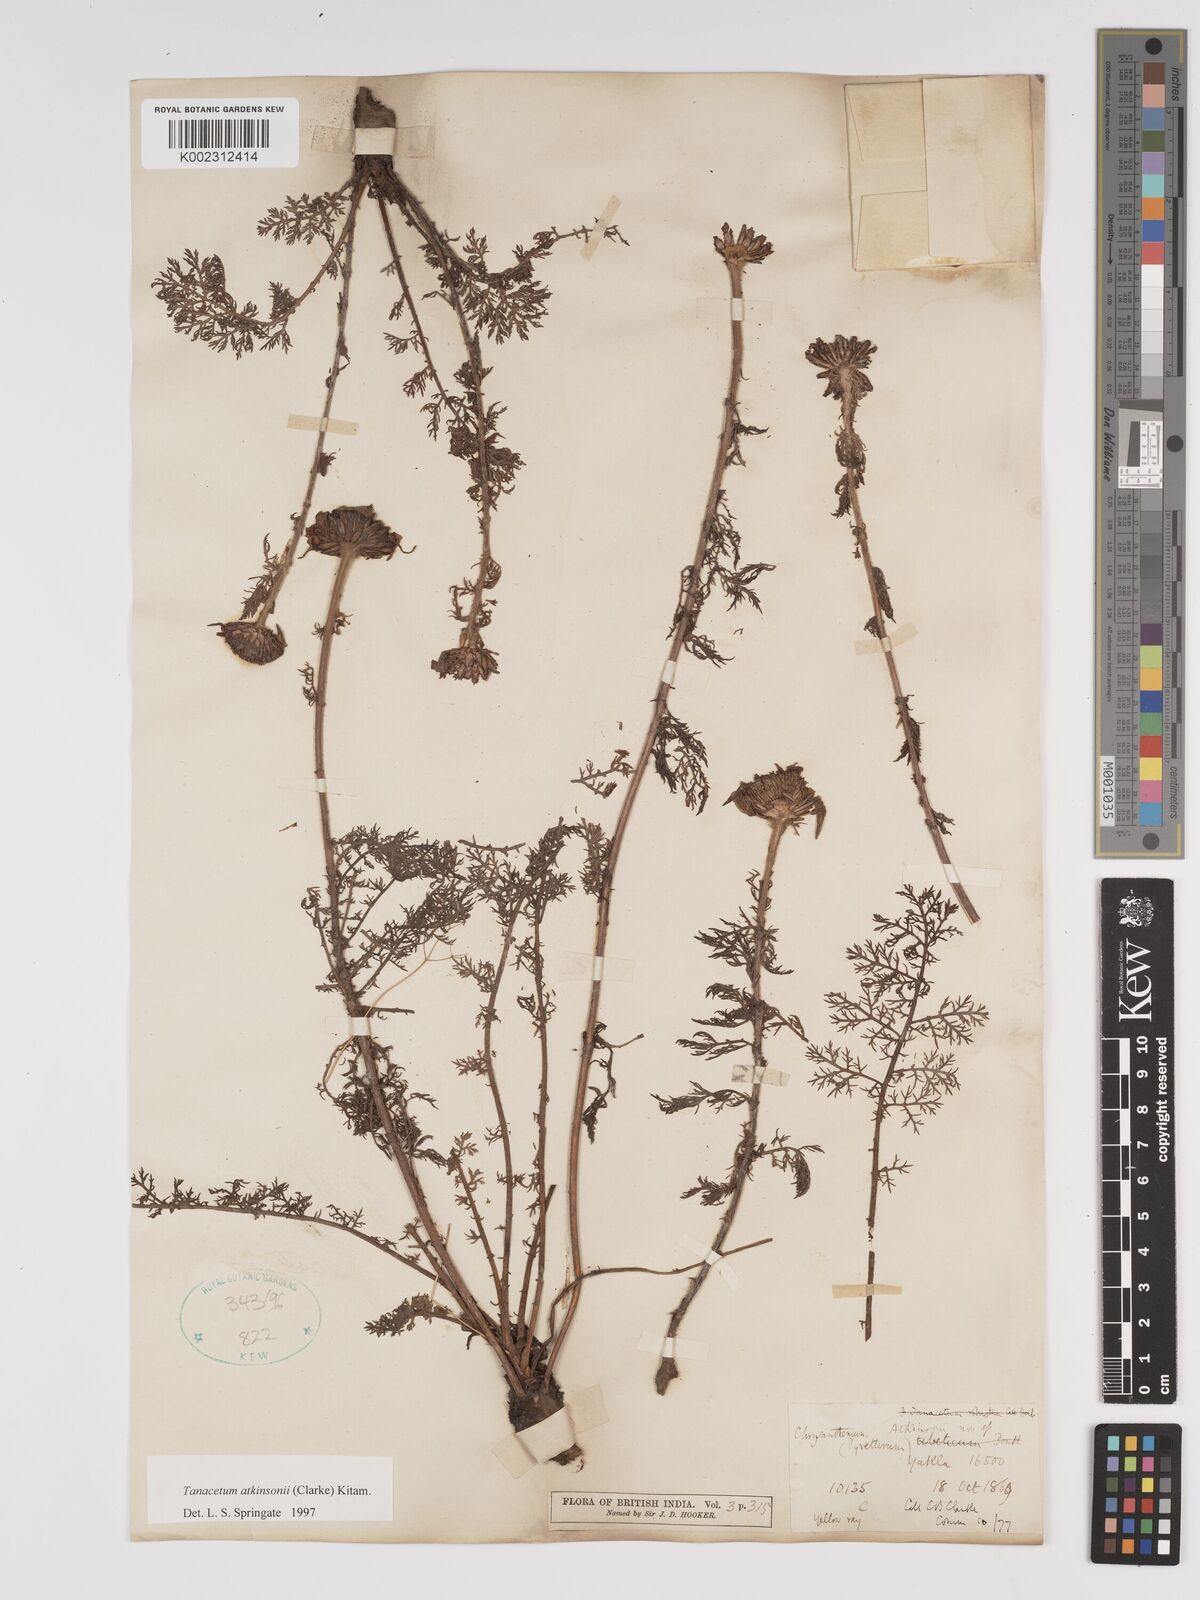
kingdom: Plantae
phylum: Tracheophyta
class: Magnoliopsida
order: Asterales
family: Asteraceae
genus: Tanacetum
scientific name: Tanacetum atkinsonii
